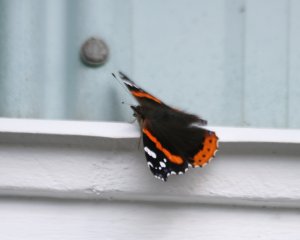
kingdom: Animalia
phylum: Arthropoda
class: Insecta
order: Lepidoptera
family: Nymphalidae
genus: Vanessa
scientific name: Vanessa atalanta
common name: Red Admiral
